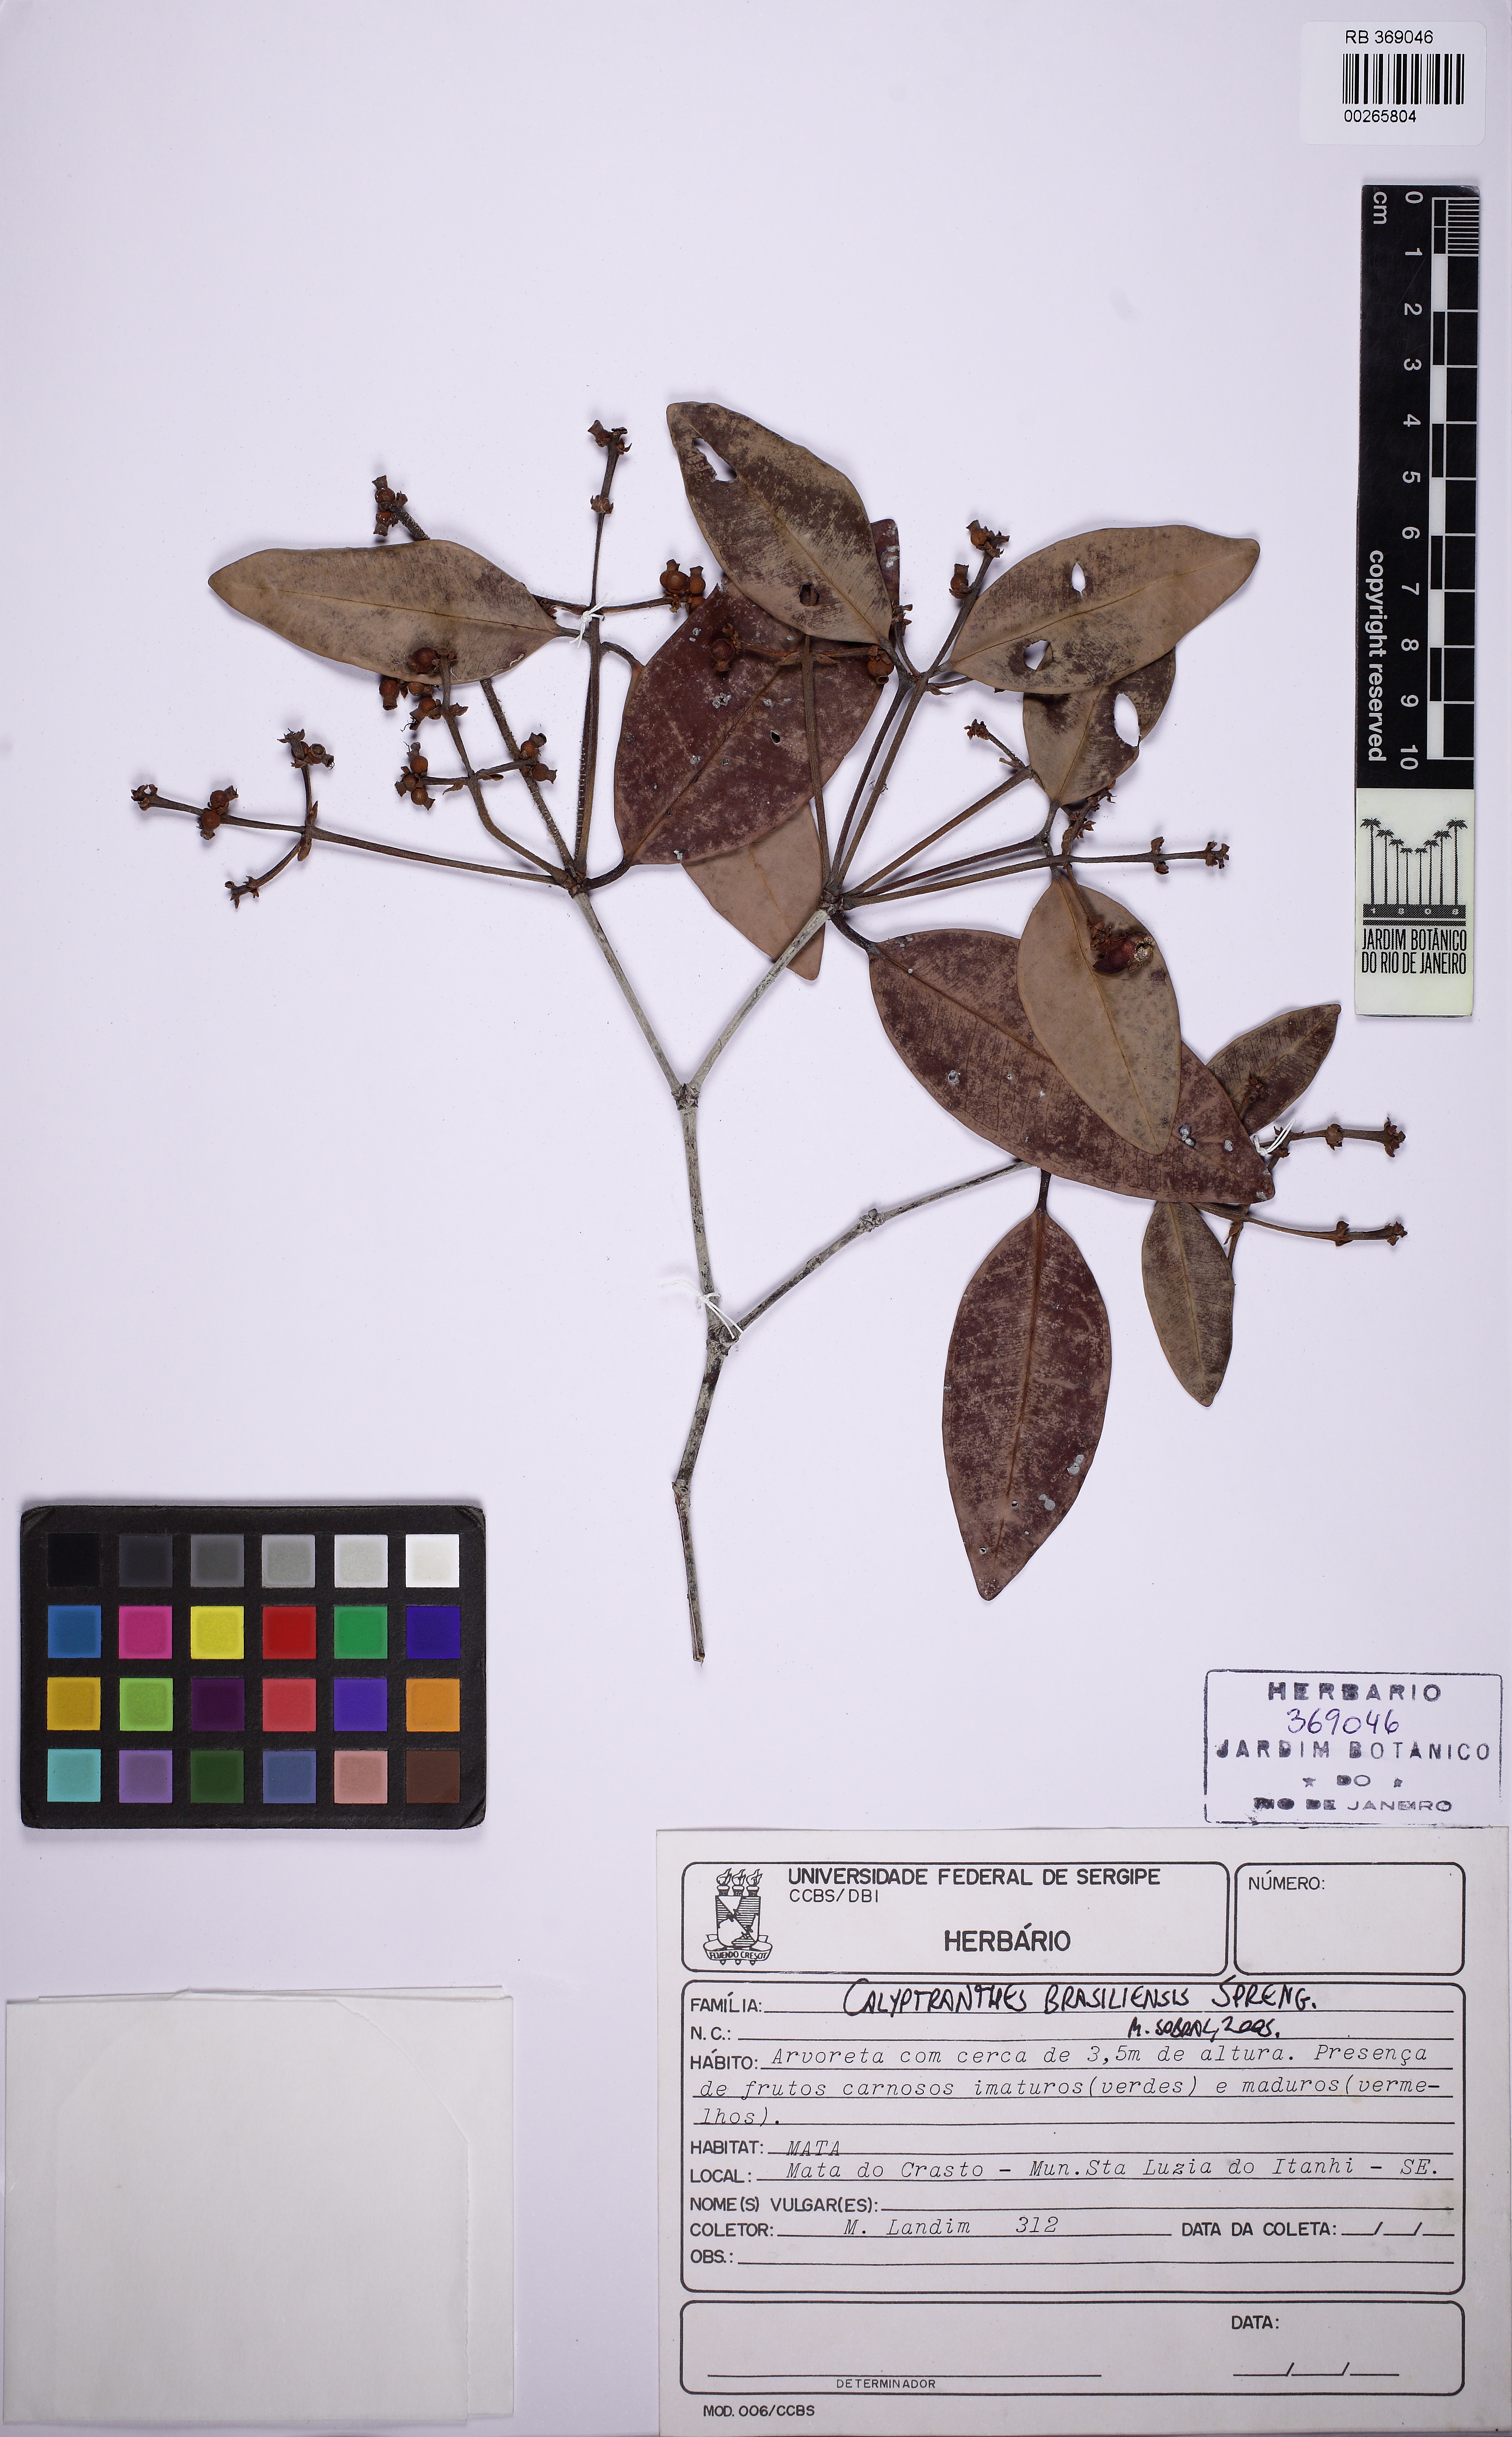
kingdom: Plantae
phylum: Tracheophyta
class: Magnoliopsida
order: Myrtales
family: Myrtaceae
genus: Myrcia
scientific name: Myrcia neobrasiliensis
